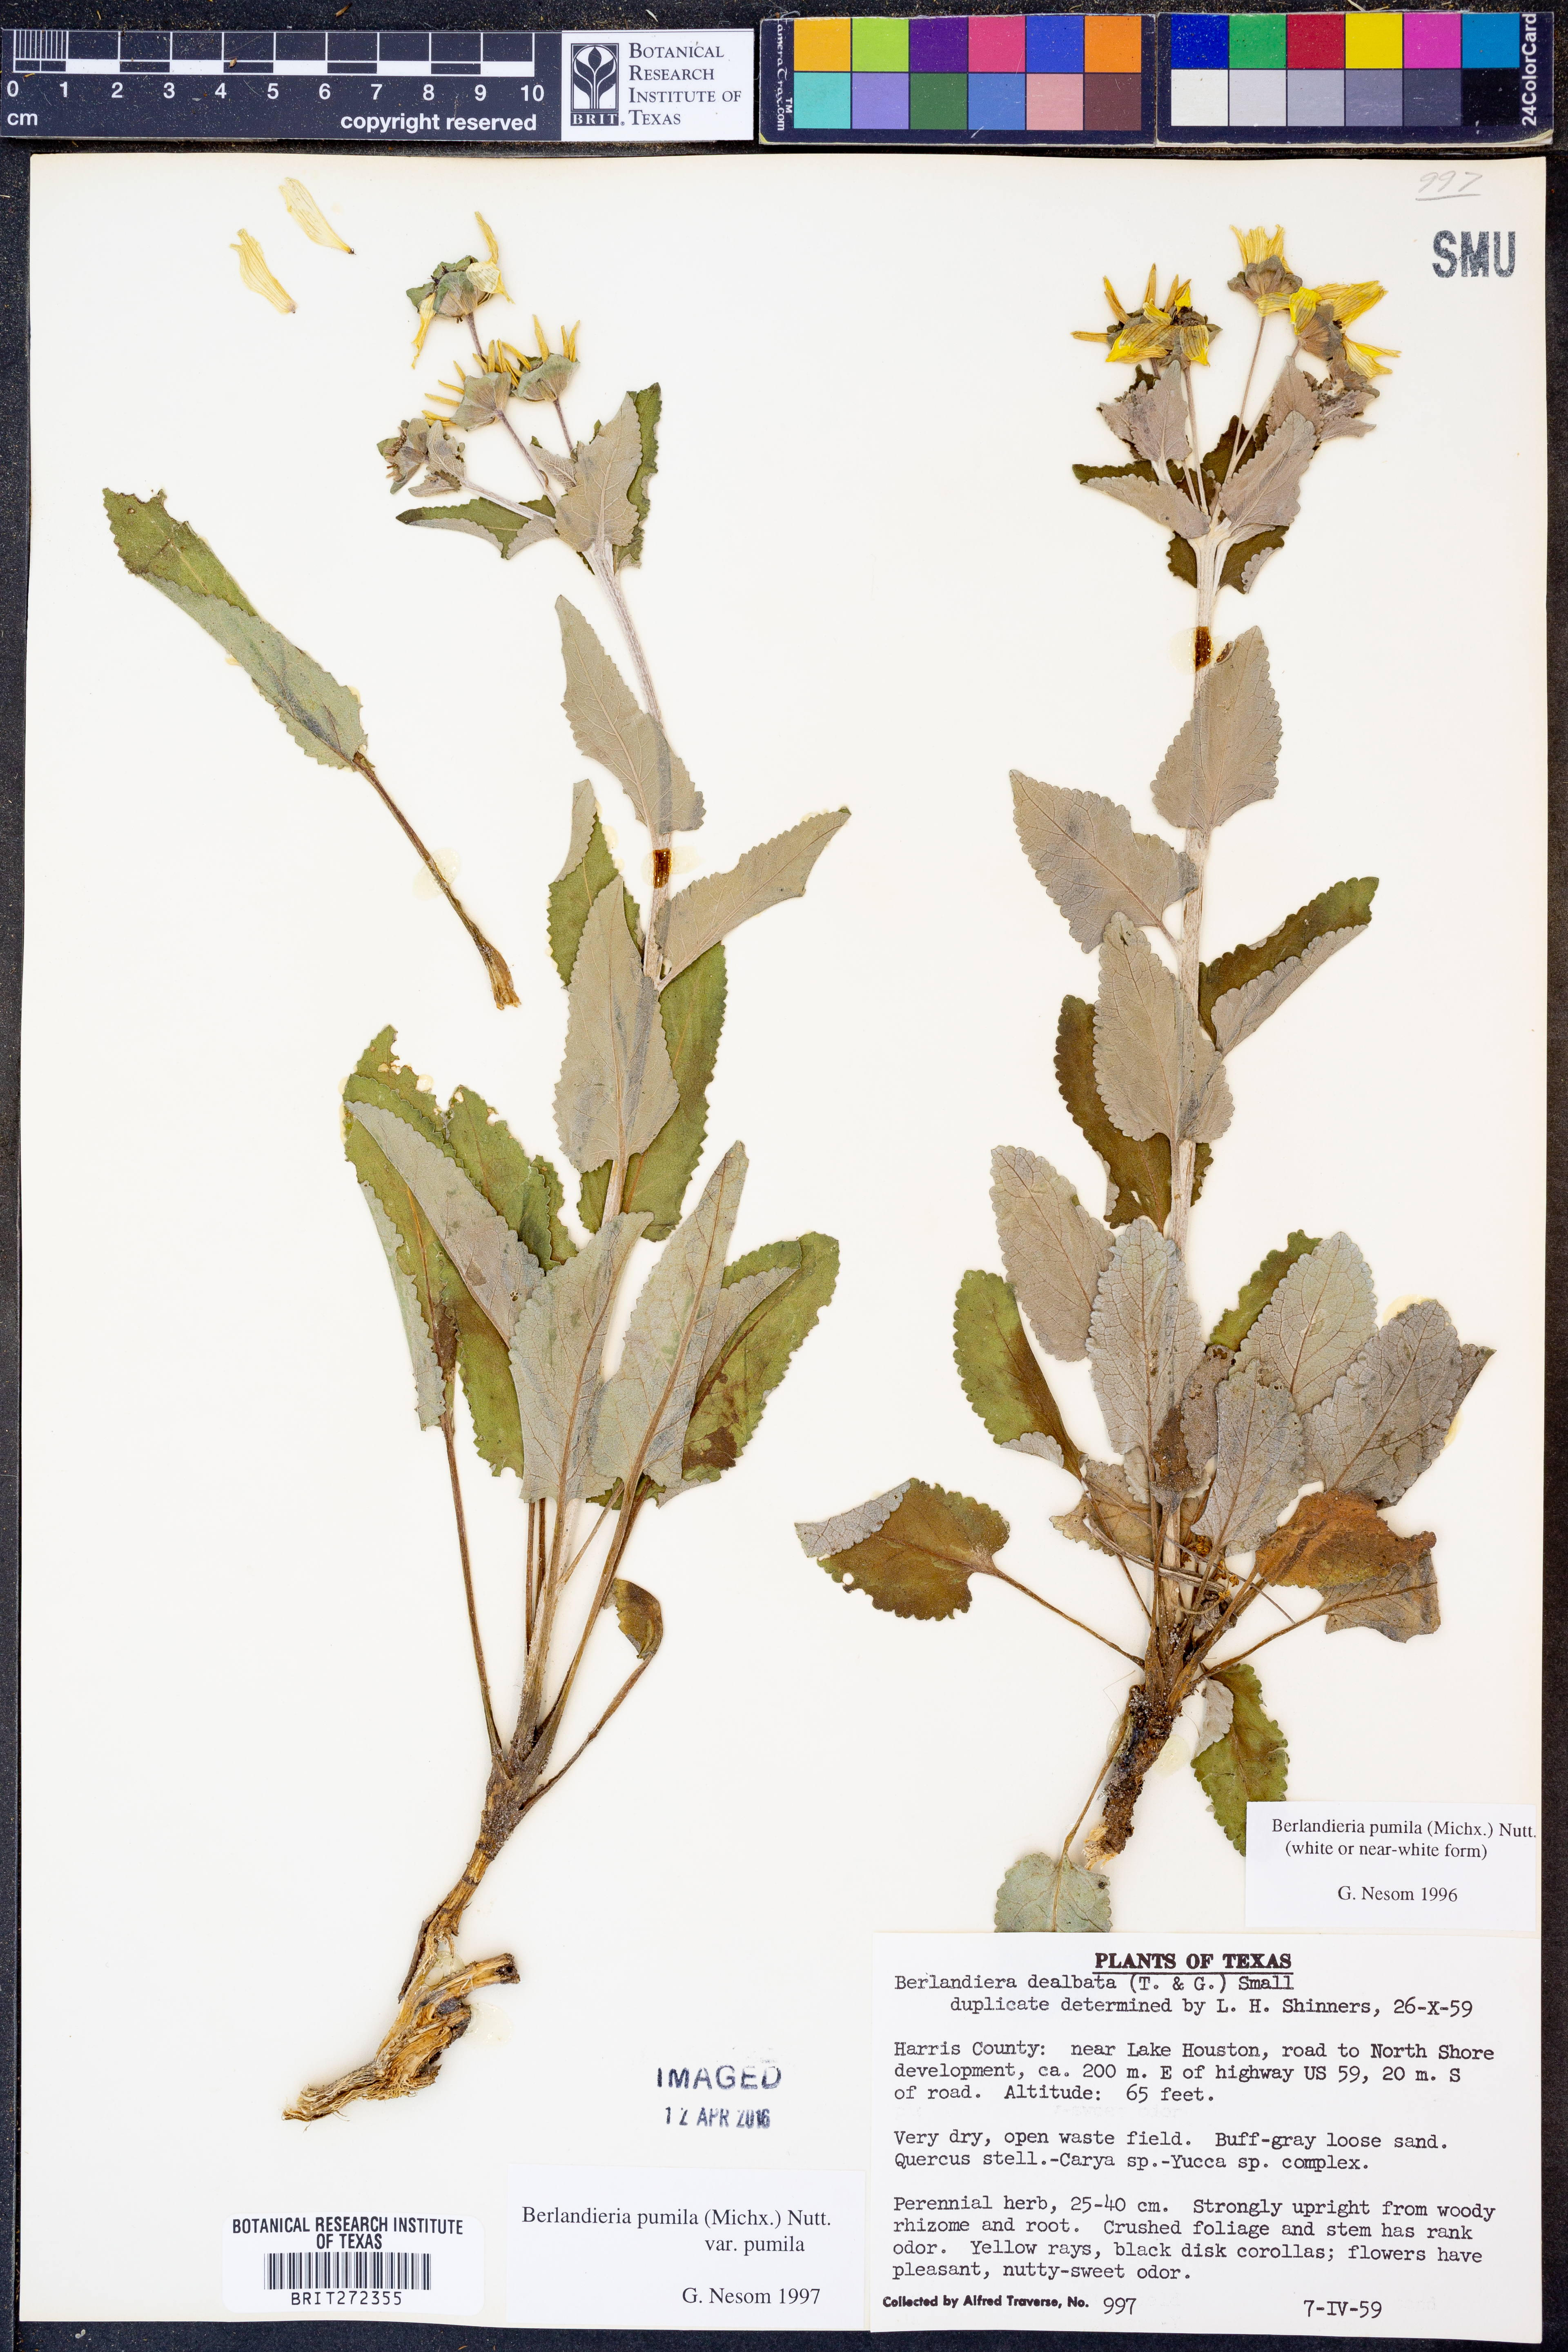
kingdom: Plantae
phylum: Tracheophyta
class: Magnoliopsida
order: Asterales
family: Asteraceae
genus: Berlandiera
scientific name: Berlandiera pumila
